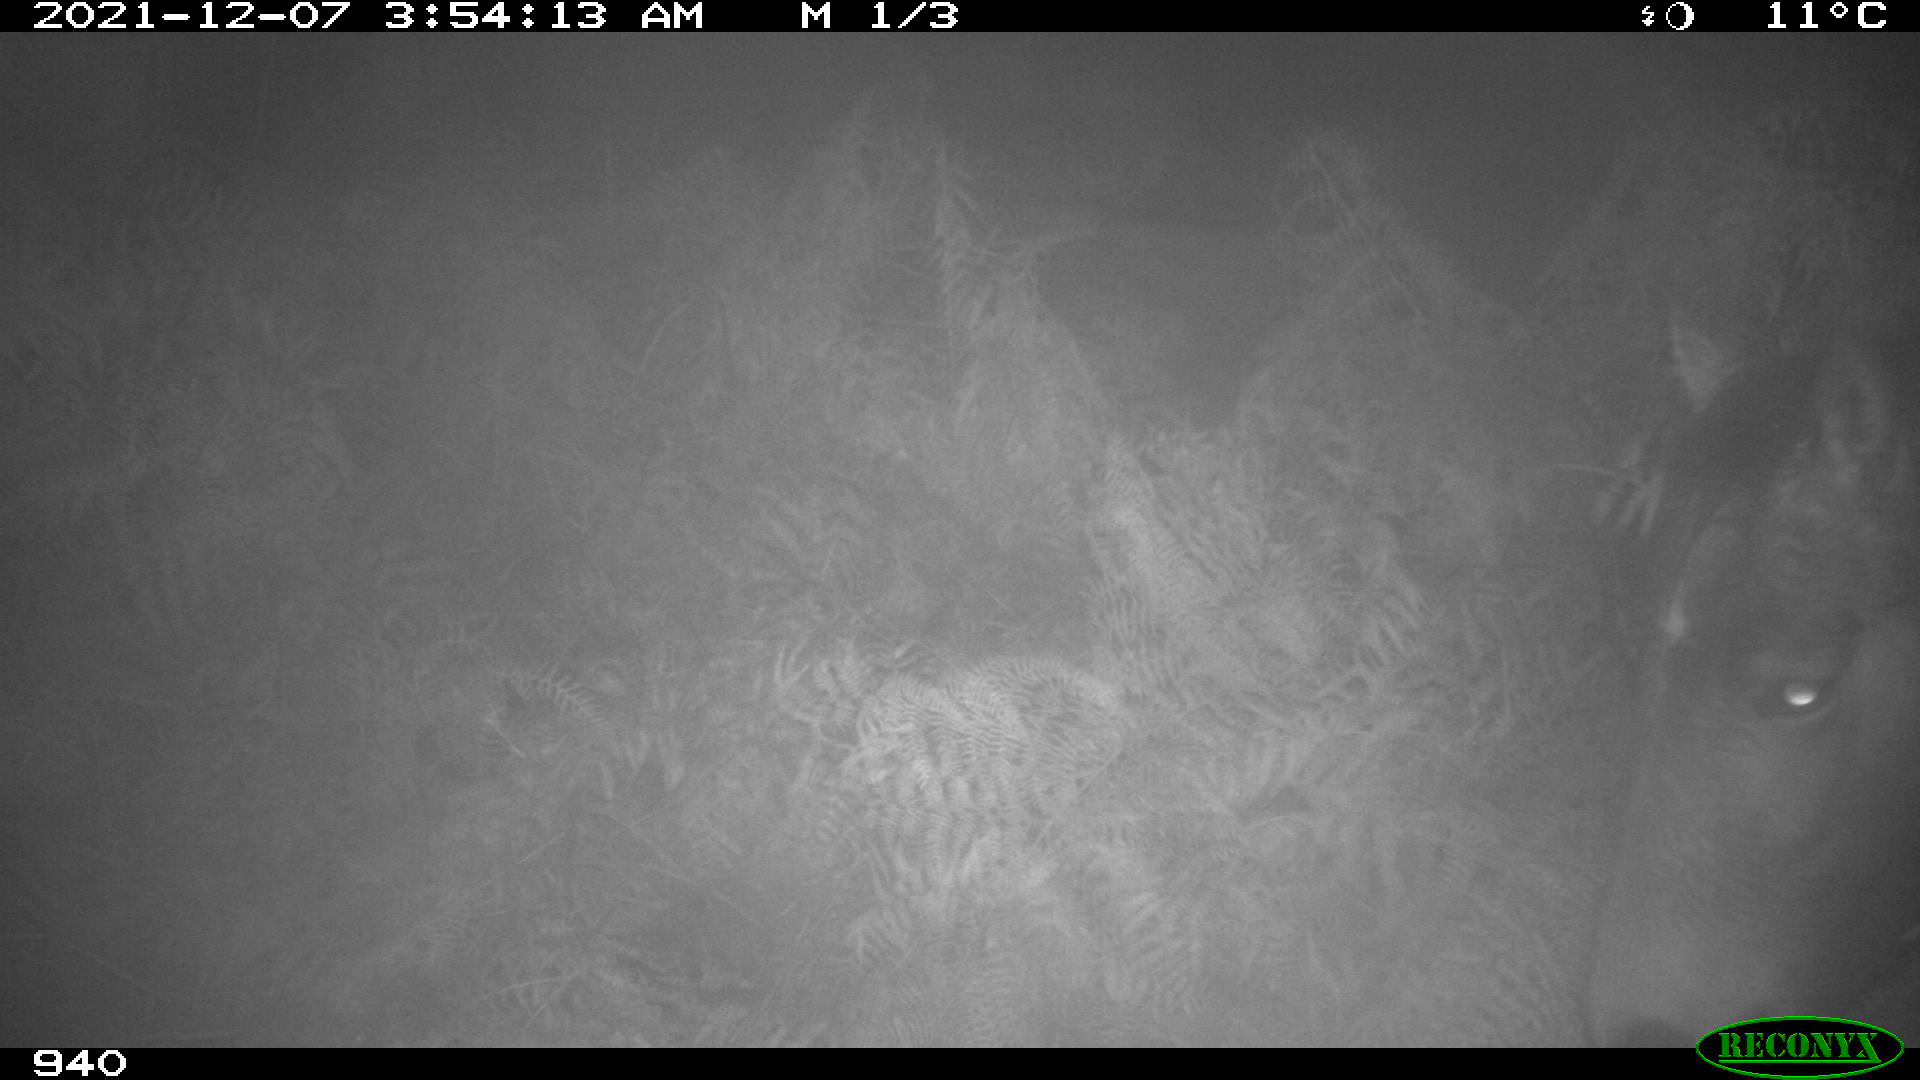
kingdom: Animalia
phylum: Chordata
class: Mammalia
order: Perissodactyla
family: Equidae
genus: Equus
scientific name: Equus caballus
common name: Horse
